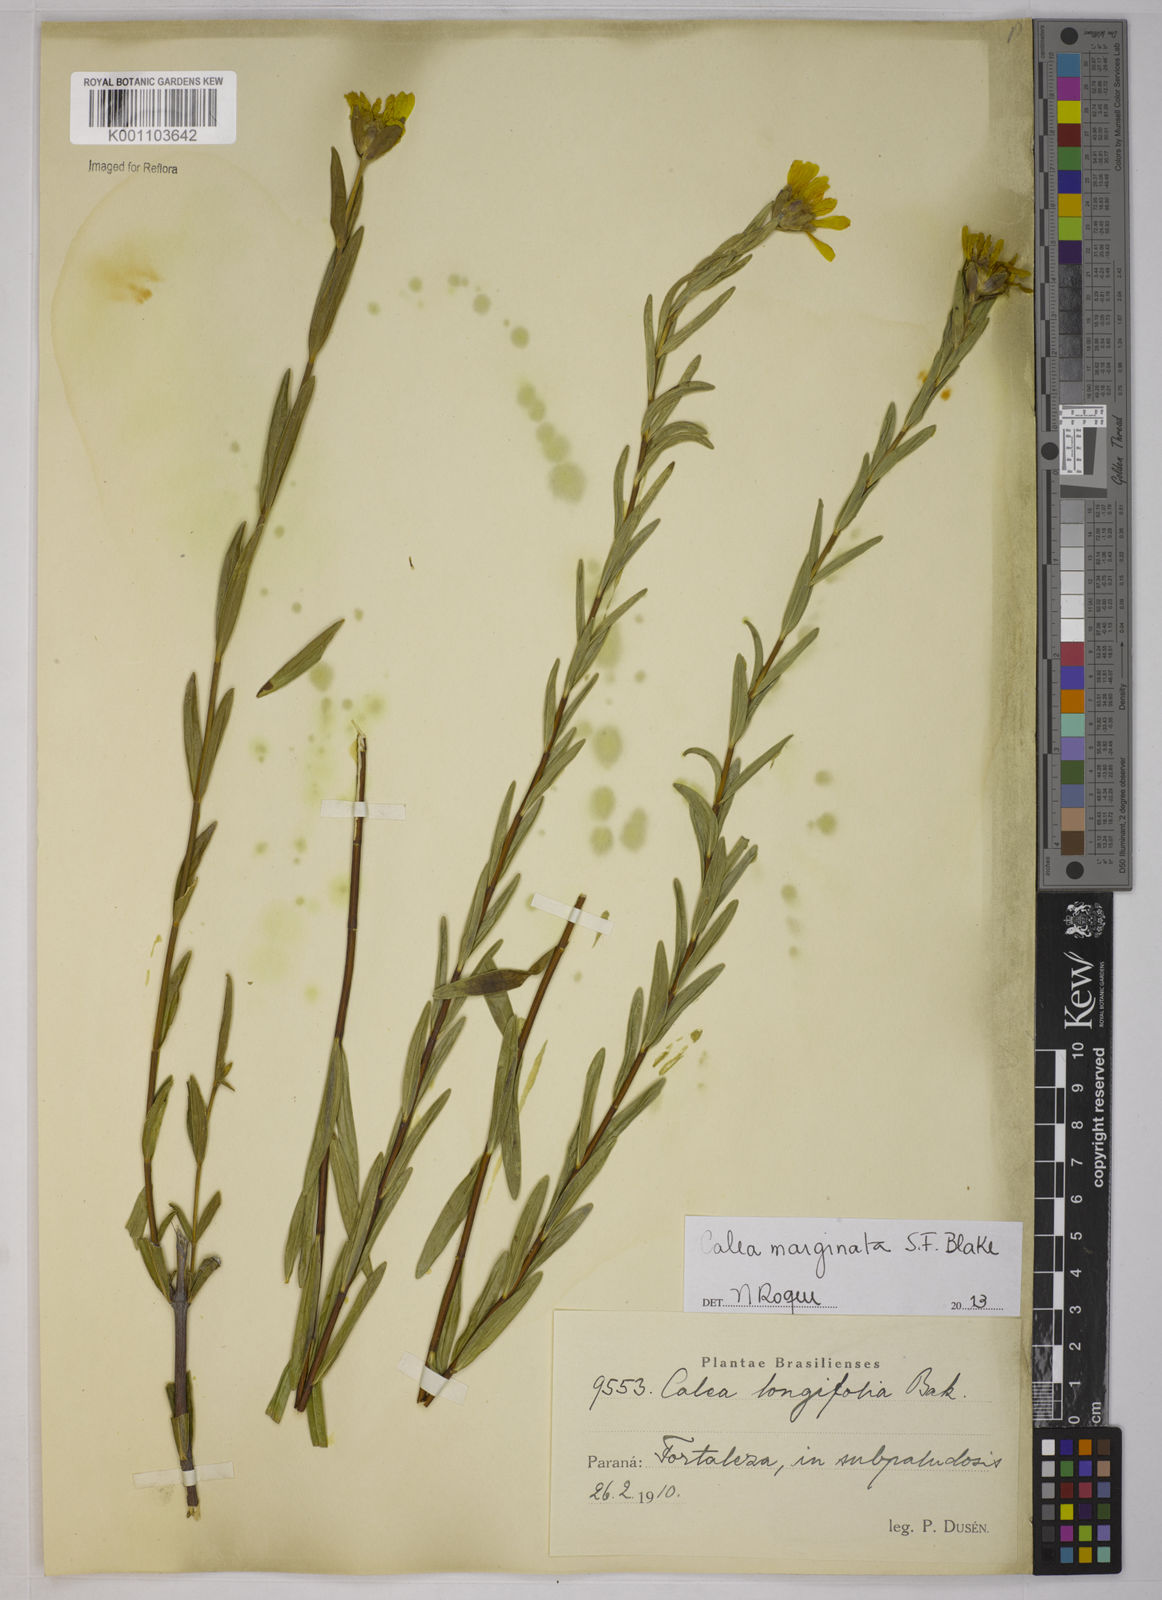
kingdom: Plantae
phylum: Tracheophyta
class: Magnoliopsida
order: Asterales
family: Asteraceae
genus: Calea
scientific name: Calea marginata
